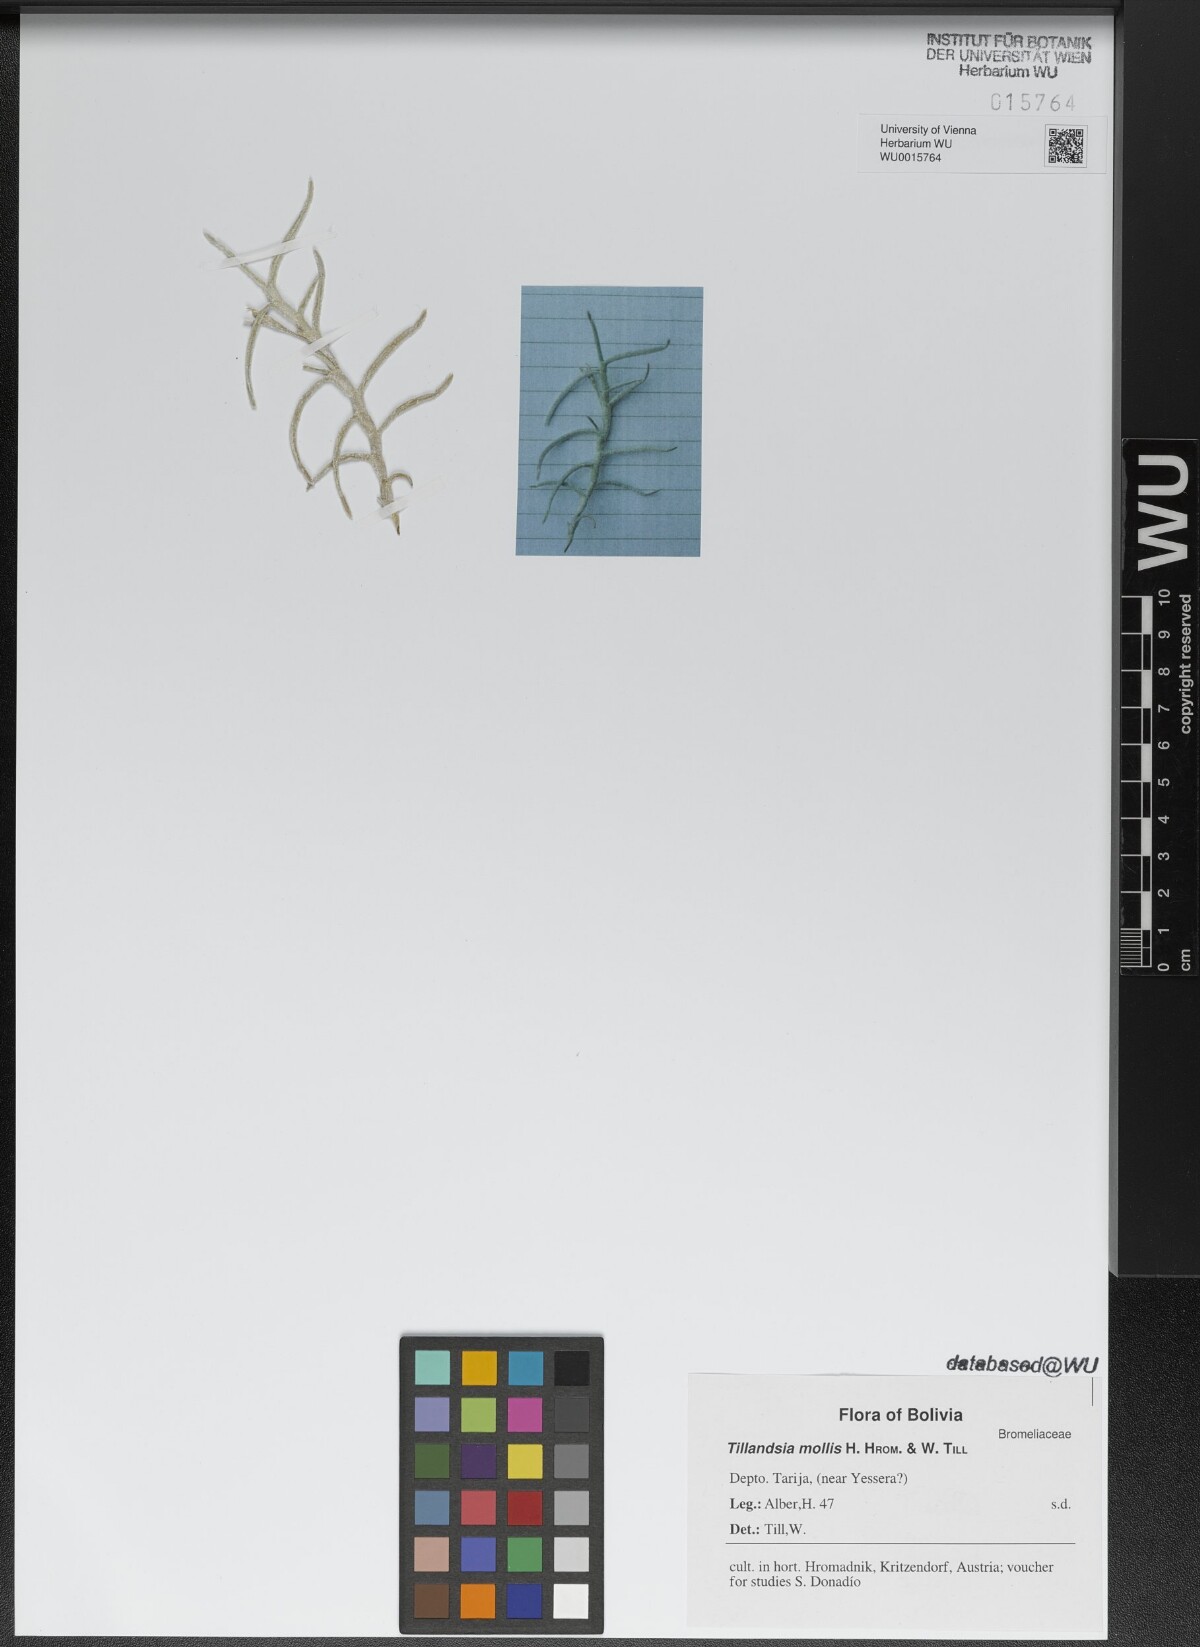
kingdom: Plantae
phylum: Tracheophyta
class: Liliopsida
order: Poales
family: Bromeliaceae
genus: Tillandsia
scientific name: Tillandsia mollis
